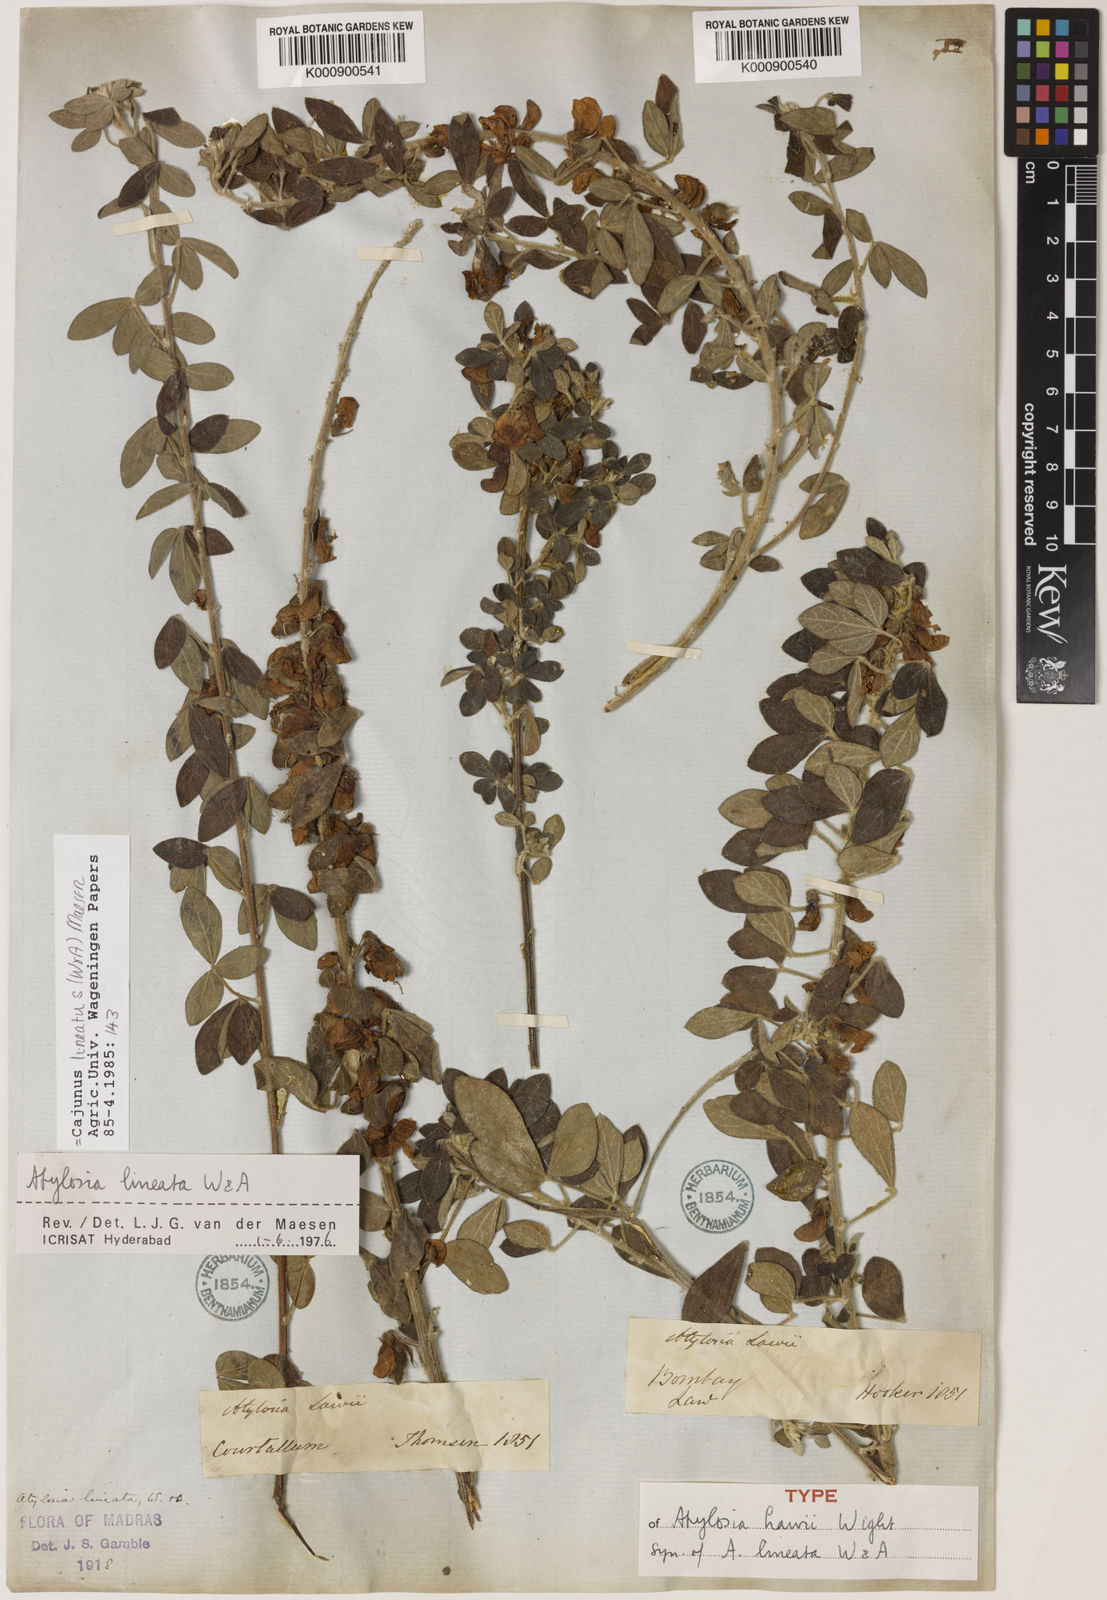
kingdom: Plantae
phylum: Tracheophyta
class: Magnoliopsida
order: Fabales
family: Fabaceae
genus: Cajanus
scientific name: Cajanus lineatus
